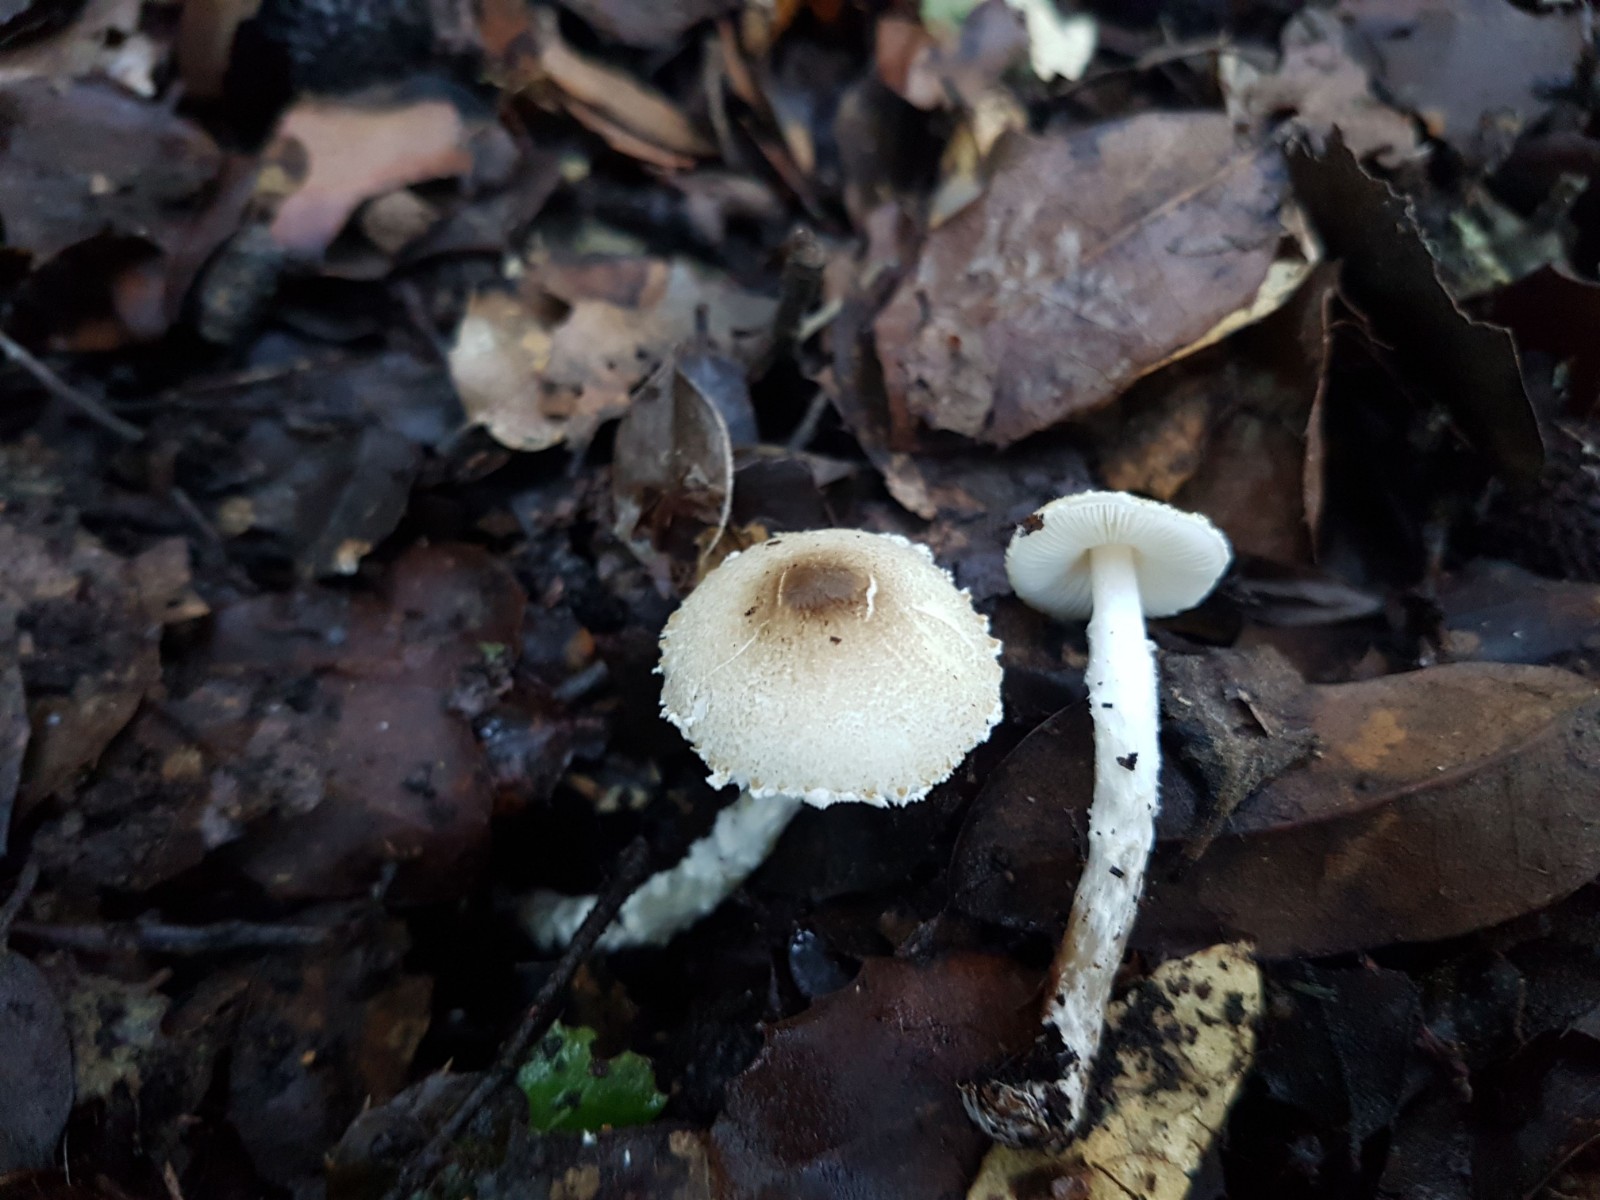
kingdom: Fungi
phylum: Basidiomycota
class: Agaricomycetes
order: Agaricales
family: Agaricaceae
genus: Lepiota
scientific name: Lepiota forquignonii
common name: olivenbrun parasolhat
